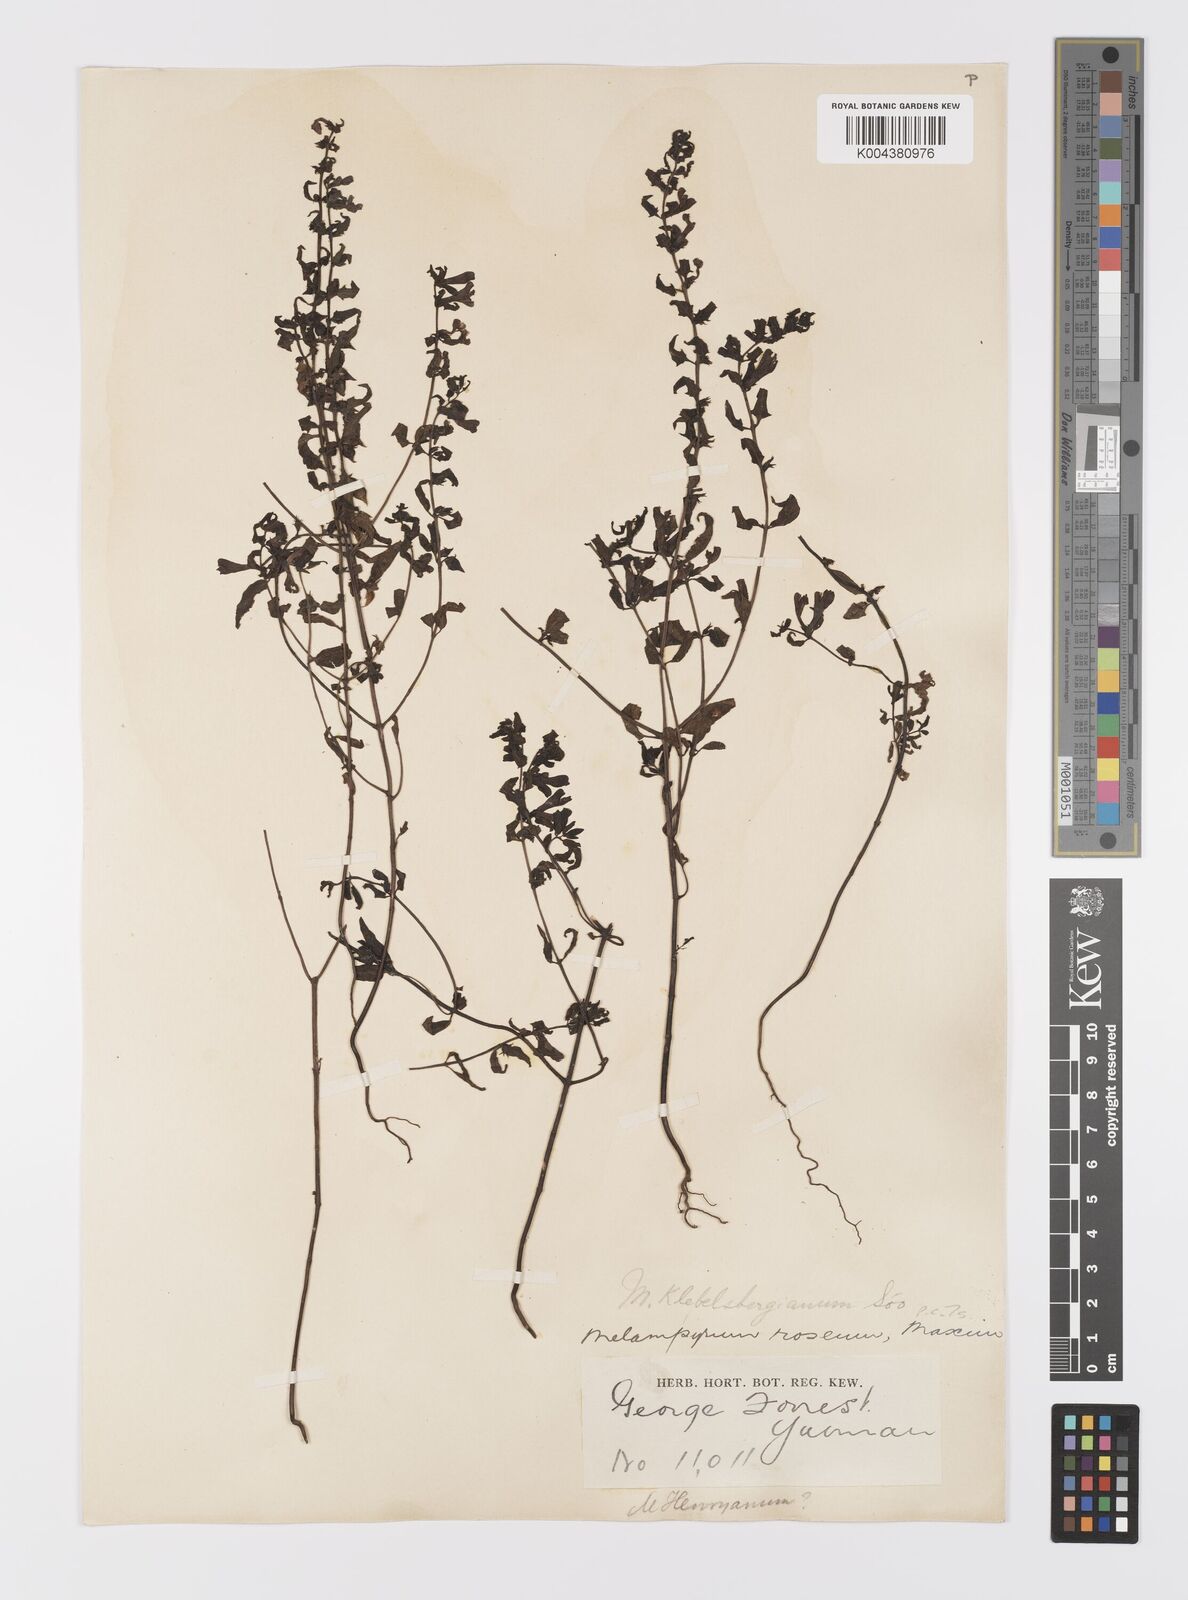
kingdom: Plantae
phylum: Tracheophyta
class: Magnoliopsida
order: Lamiales
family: Orobanchaceae
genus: Melampyrum
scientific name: Melampyrum chinense
